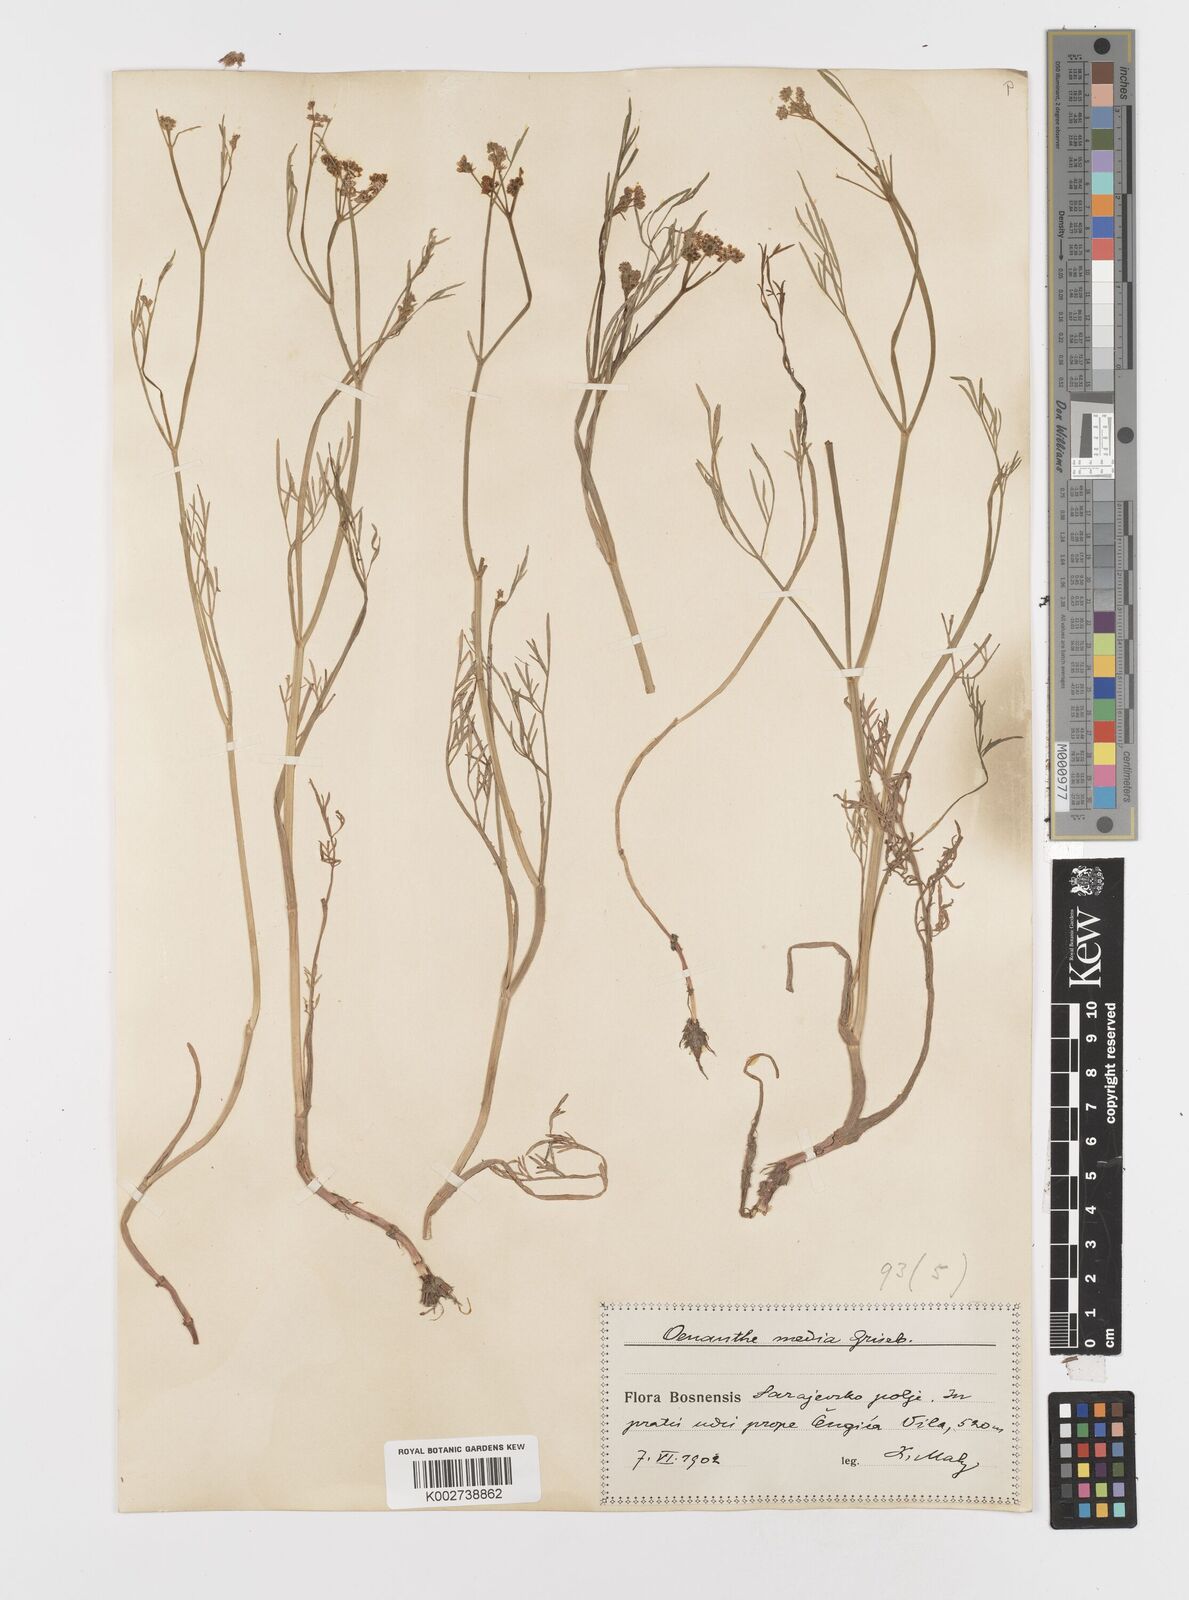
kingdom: Plantae
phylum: Tracheophyta
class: Magnoliopsida
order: Apiales
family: Apiaceae
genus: Oenanthe
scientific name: Oenanthe silaifolia
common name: Narrow-leaved water-dropwort
